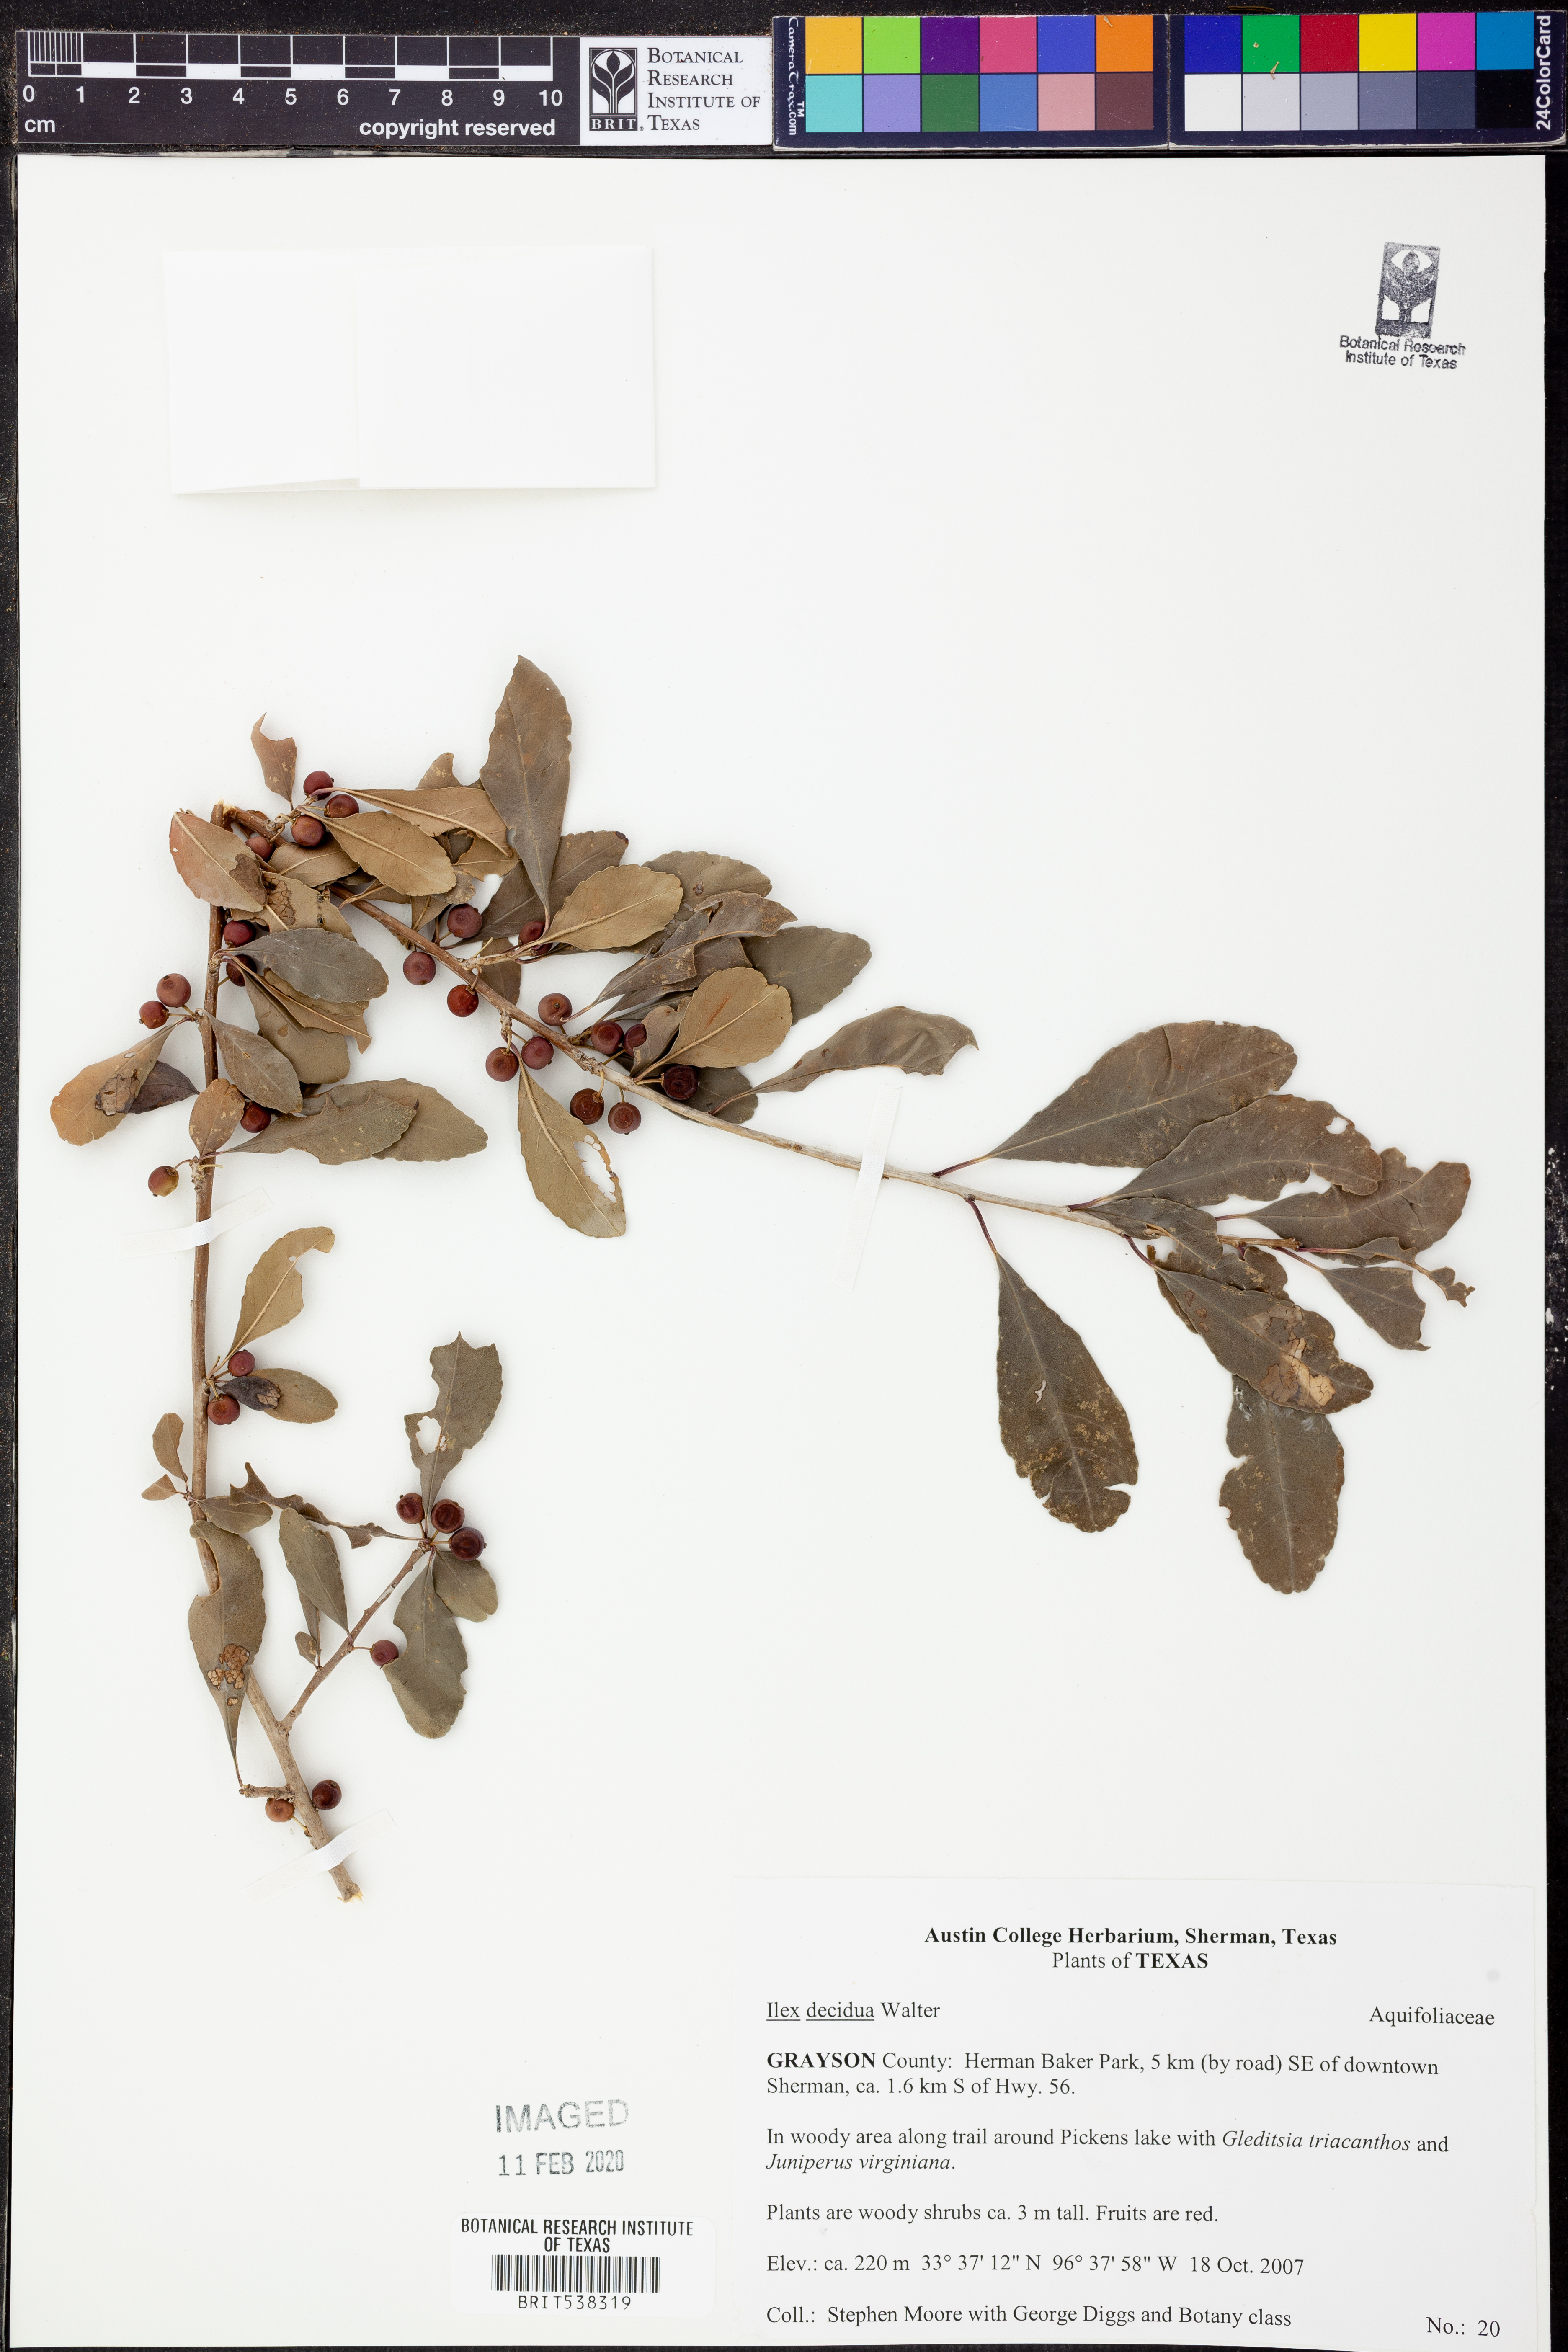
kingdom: Plantae
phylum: Tracheophyta
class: Magnoliopsida
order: Aquifoliales
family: Aquifoliaceae
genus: Ilex
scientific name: Ilex decidua
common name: Possum-haw
